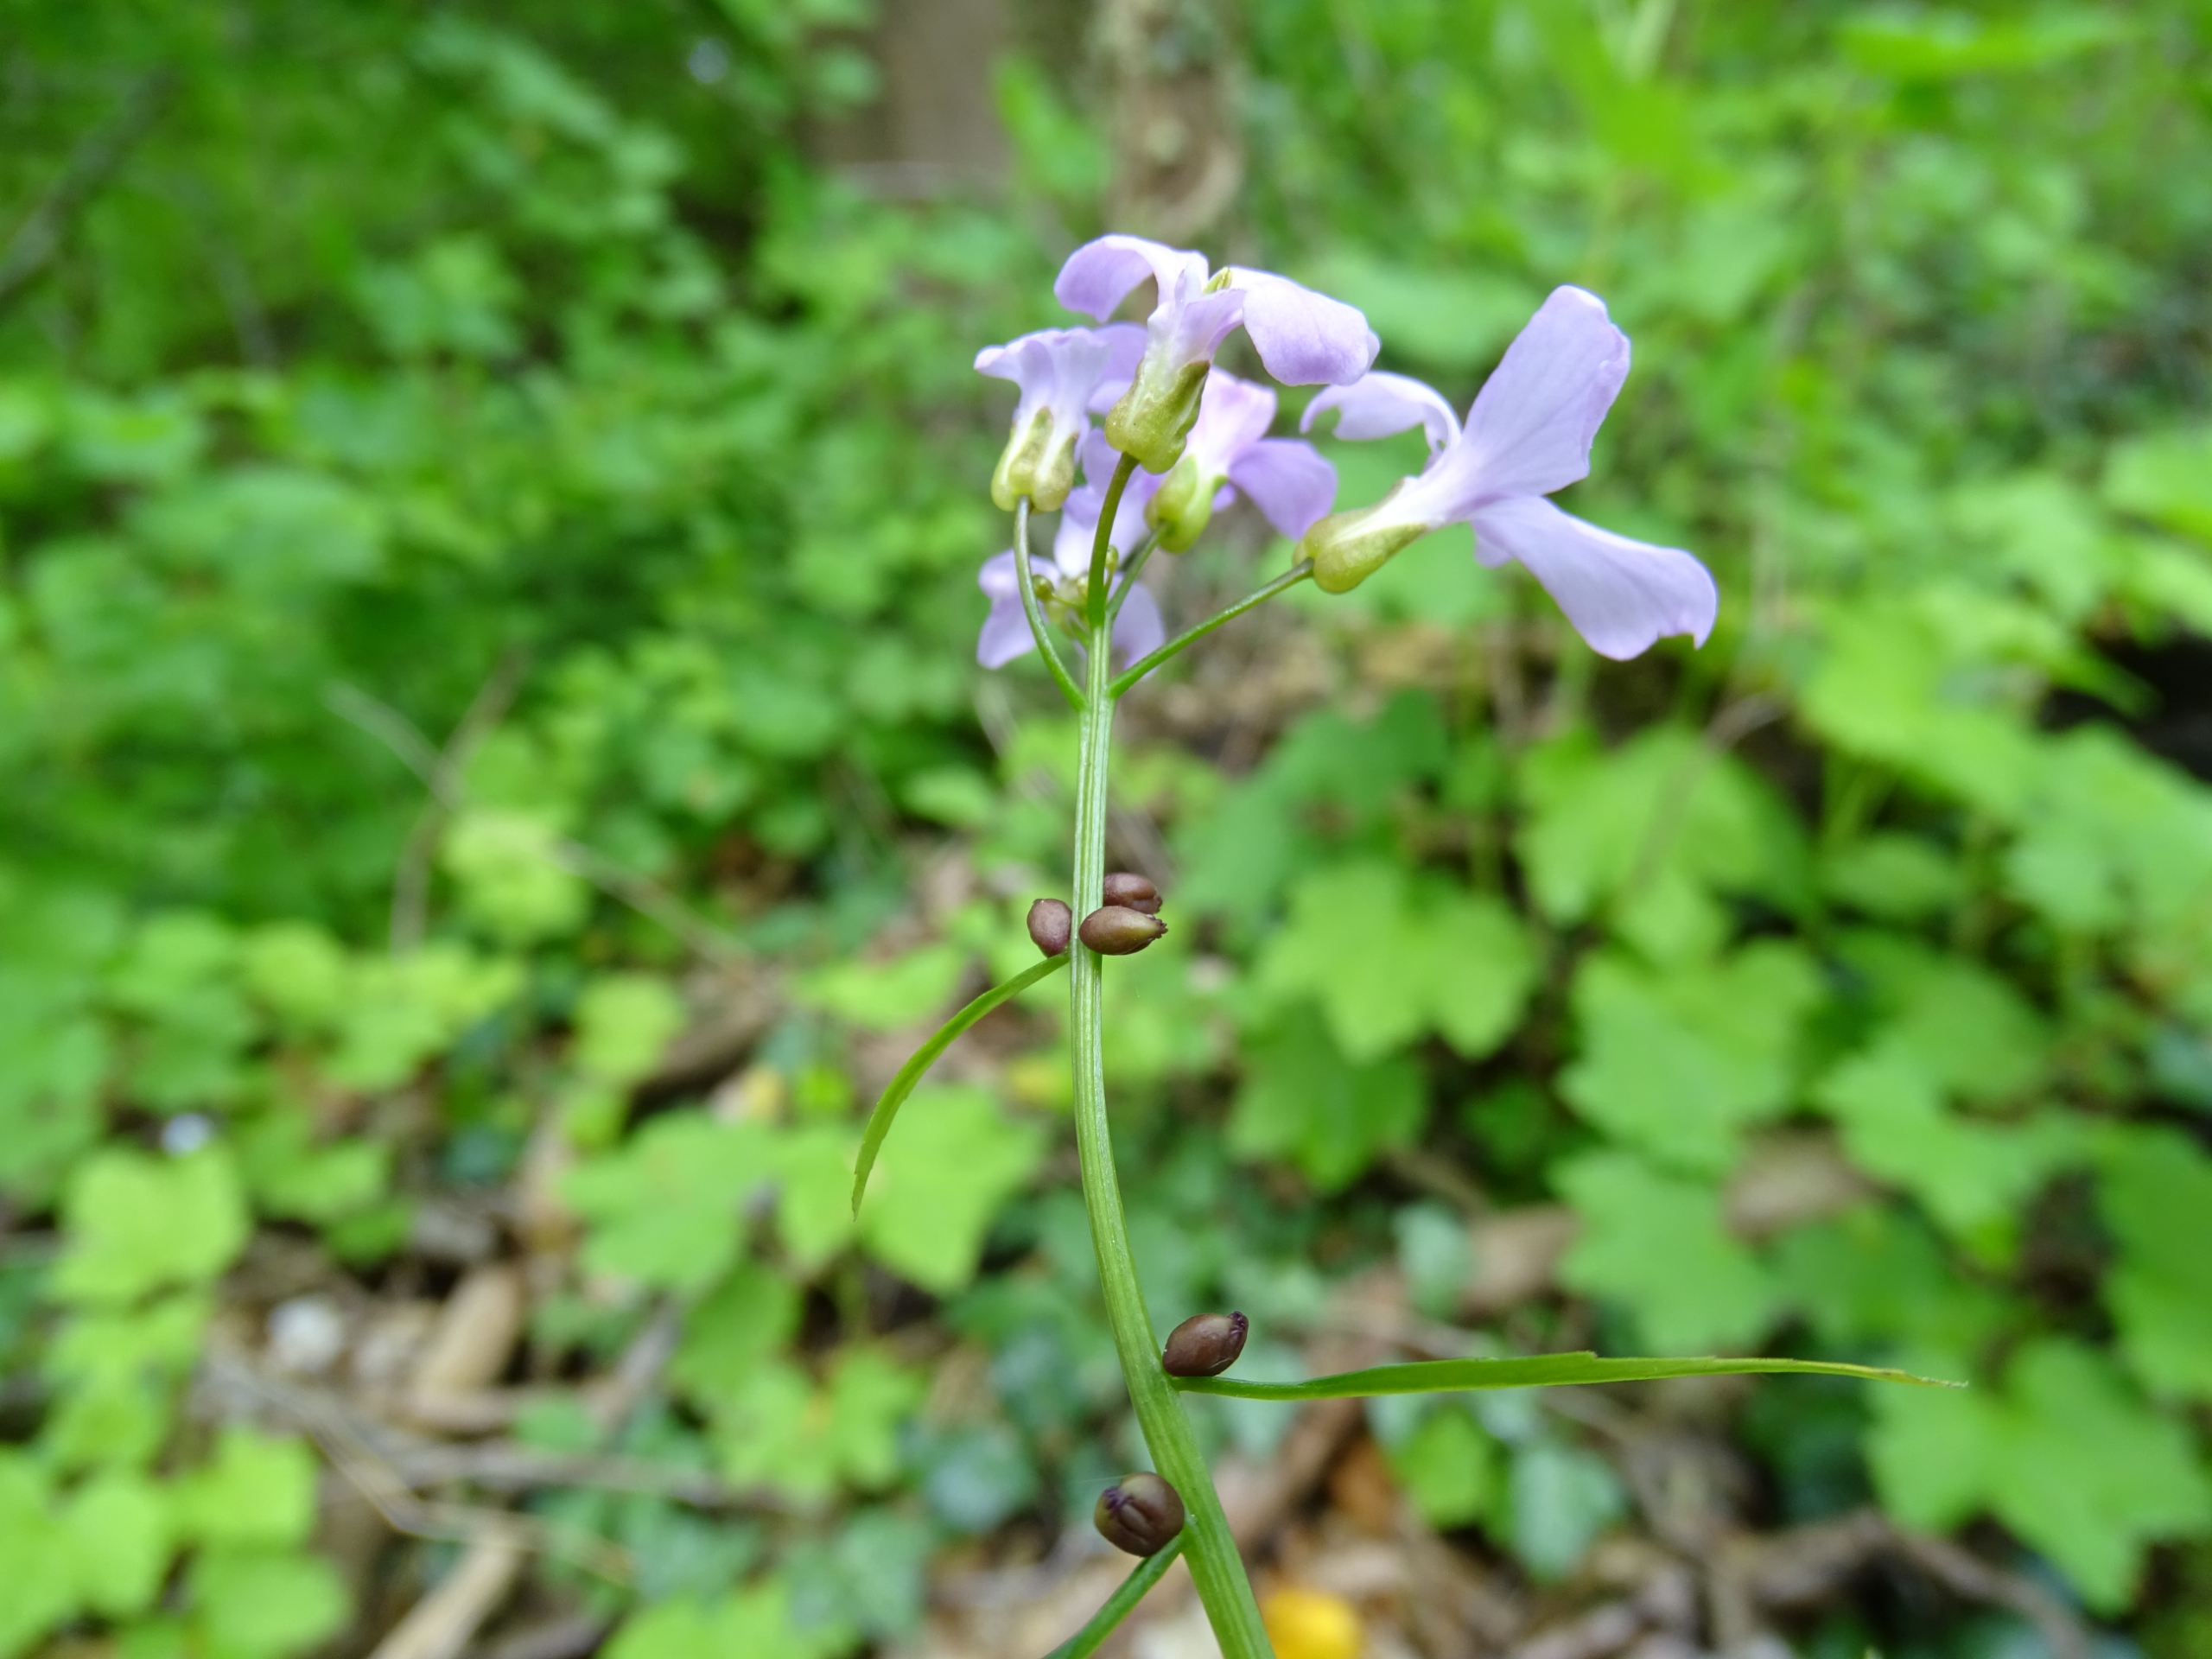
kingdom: Plantae
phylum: Tracheophyta
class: Magnoliopsida
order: Brassicales
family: Brassicaceae
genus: Cardamine
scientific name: Cardamine bulbifera
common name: Tandrod
